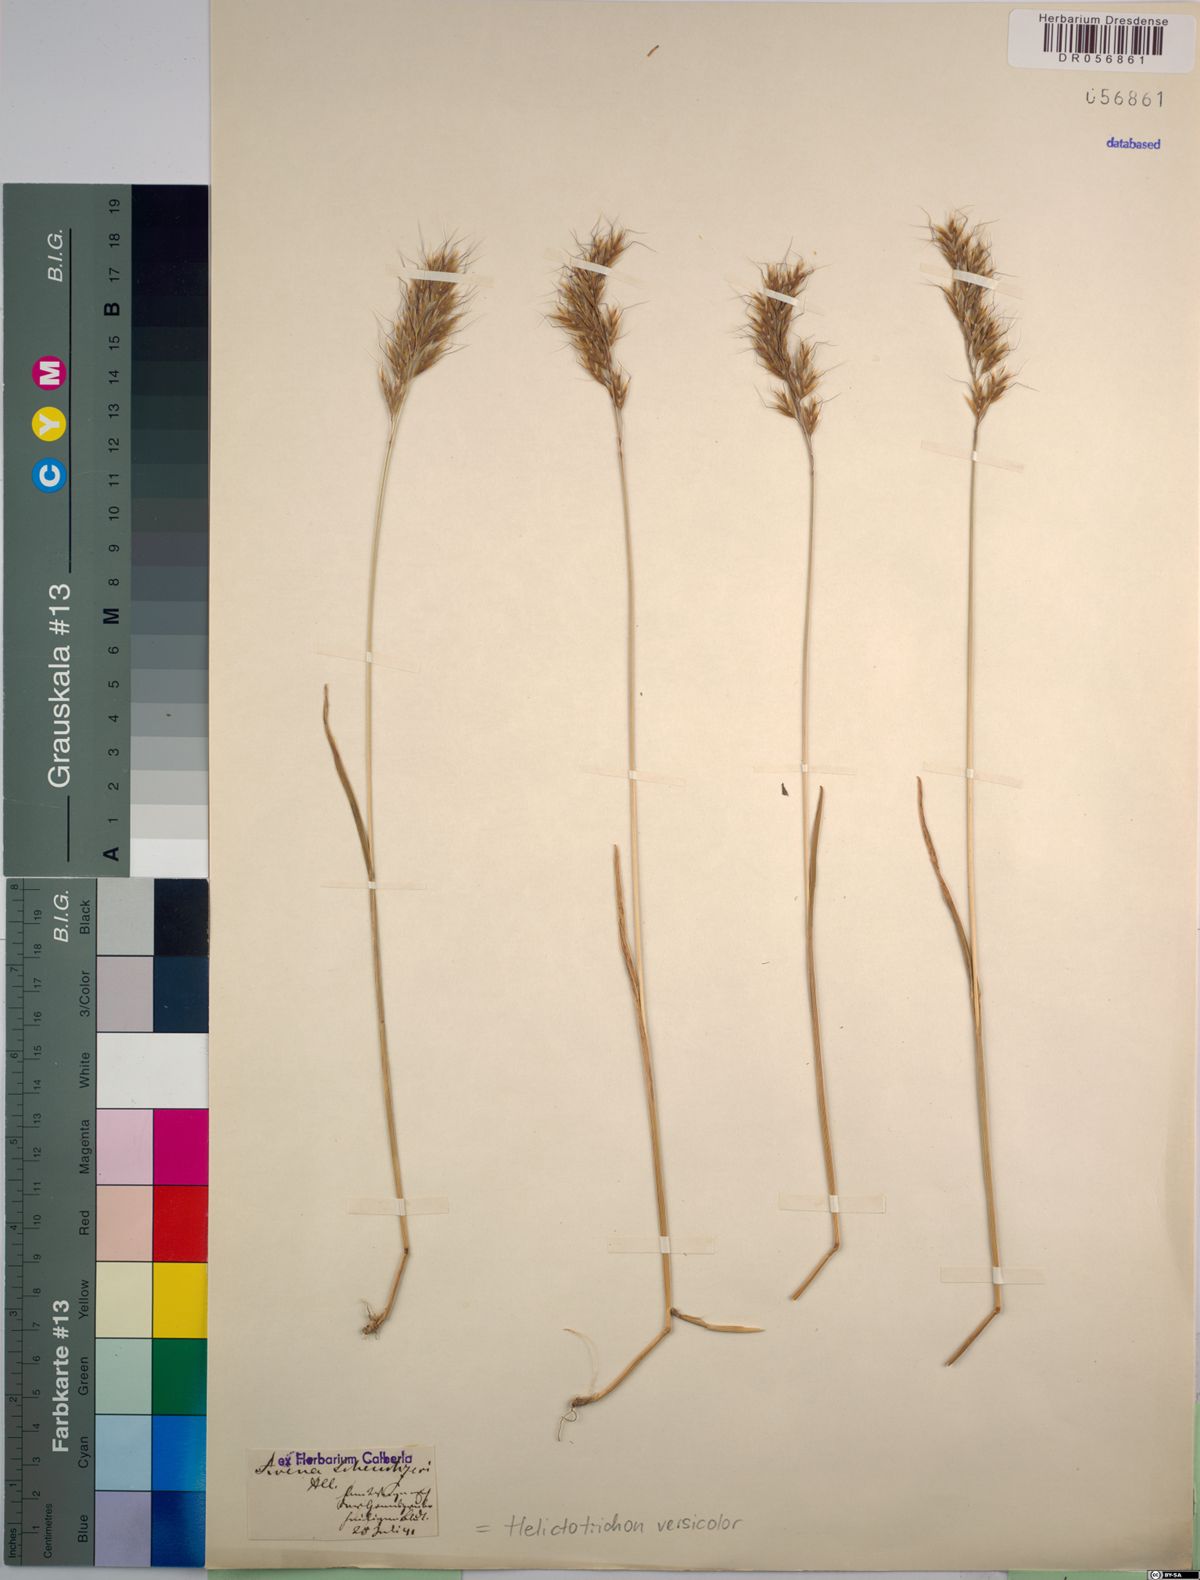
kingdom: Plantae
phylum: Tracheophyta
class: Liliopsida
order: Poales
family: Poaceae
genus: Helictochloa
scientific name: Helictochloa versicolor
